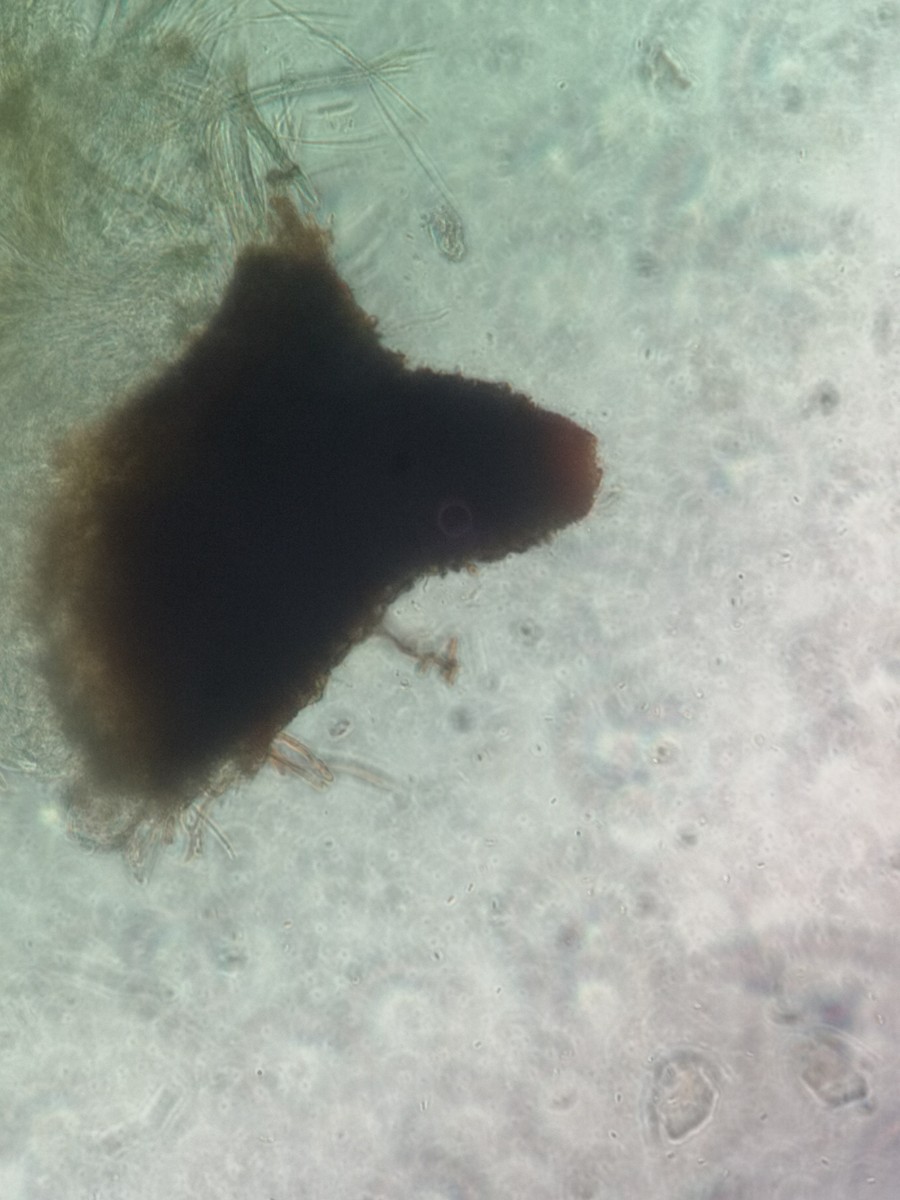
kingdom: Fungi
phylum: Ascomycota
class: Dothideomycetes
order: Dothideales
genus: Leptospora
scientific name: Leptospora rubella
